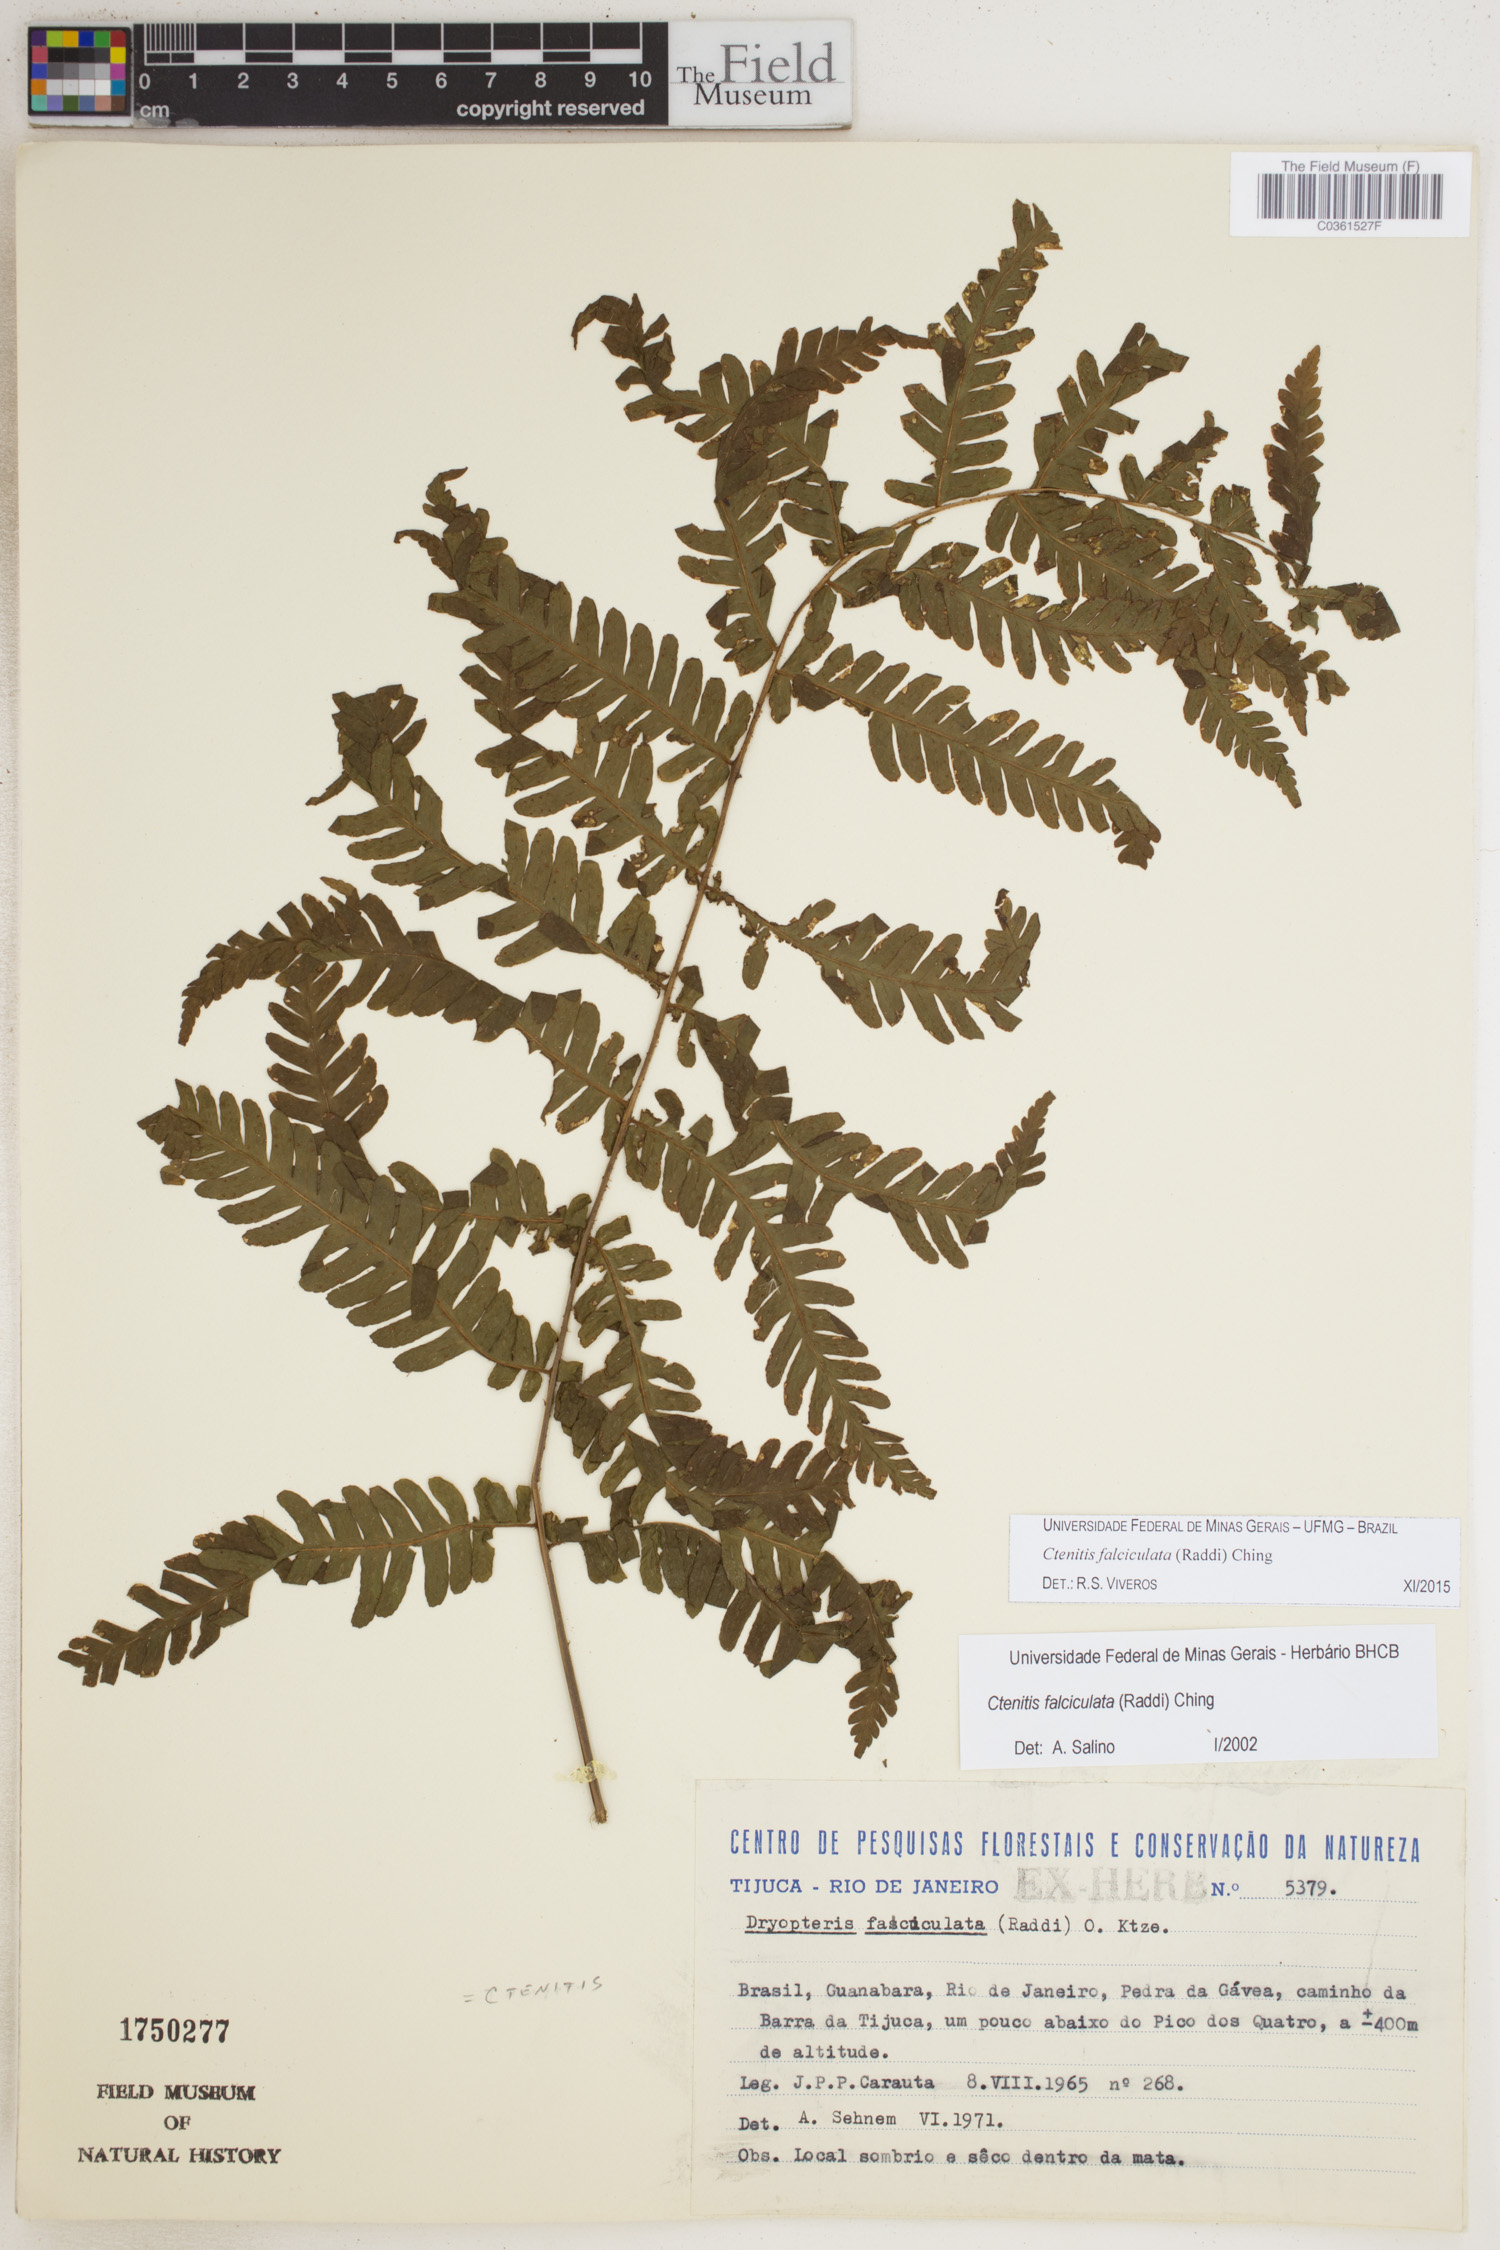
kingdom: Plantae
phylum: Tracheophyta
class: Polypodiopsida
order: Polypodiales
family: Dryopteridaceae
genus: Ctenitis
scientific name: Ctenitis falciculata
